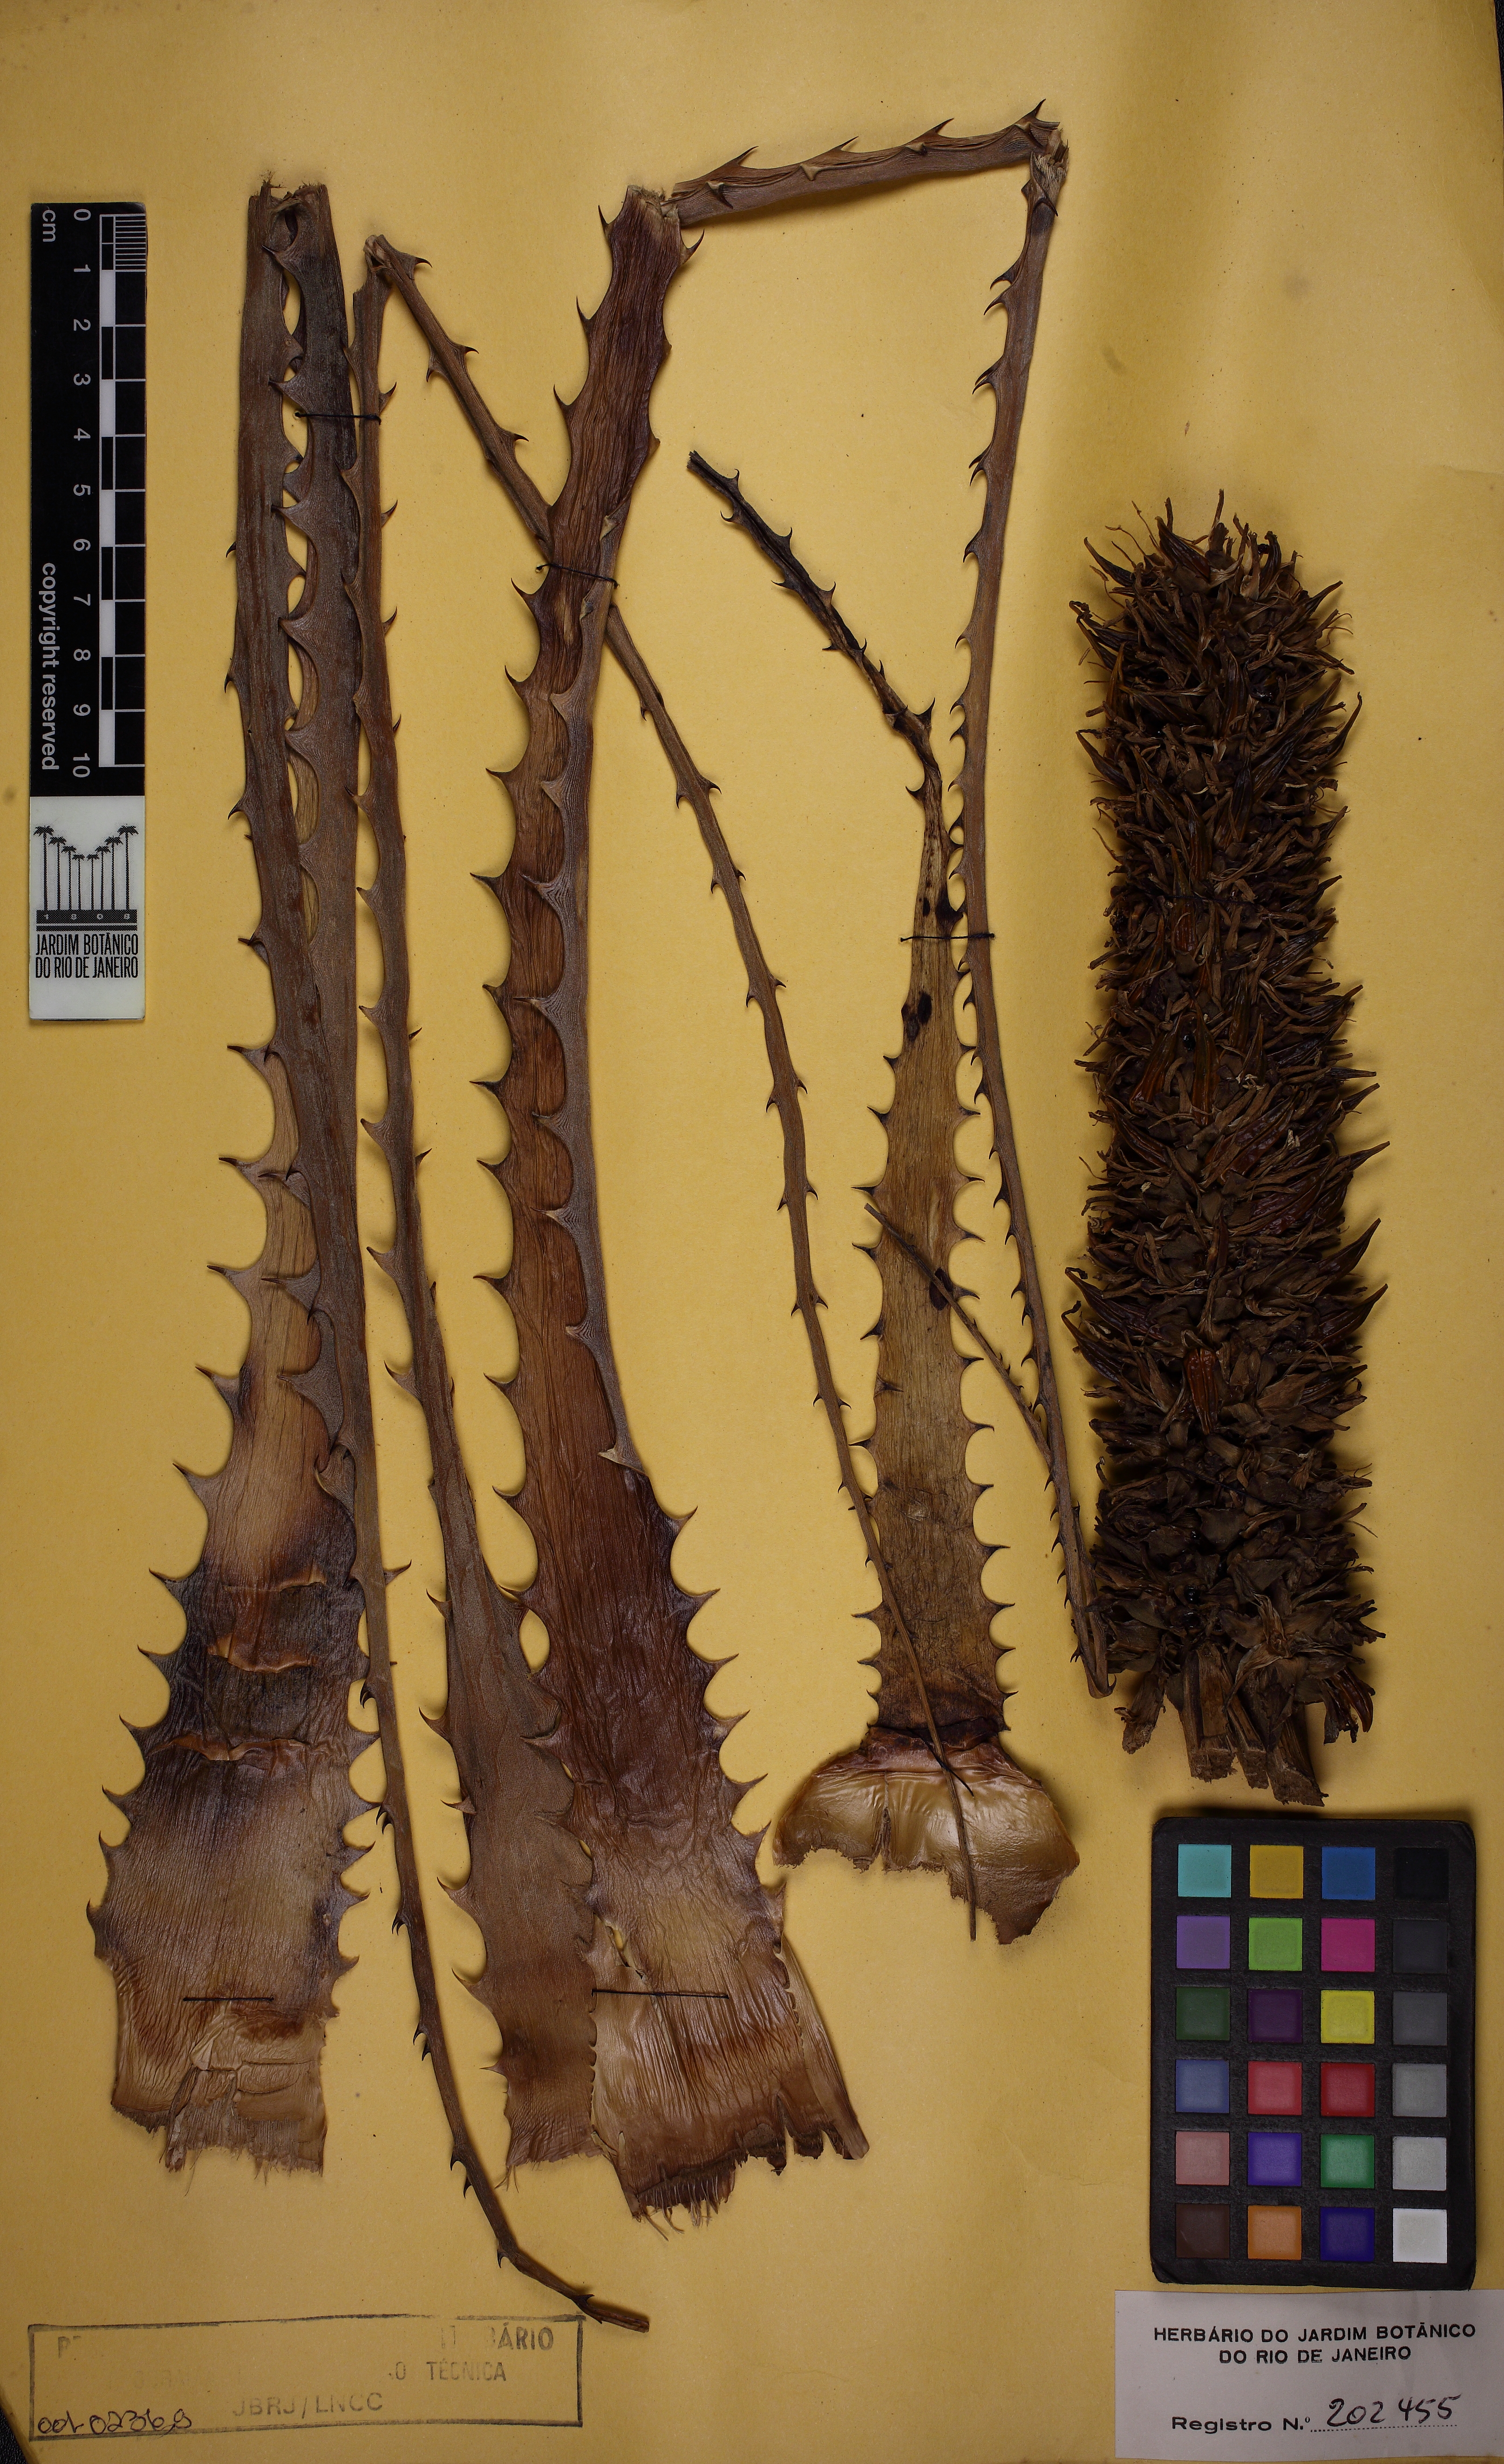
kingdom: Plantae
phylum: Tracheophyta
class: Liliopsida
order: Poales
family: Bromeliaceae
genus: Encholirium
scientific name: Encholirium brachypodum
